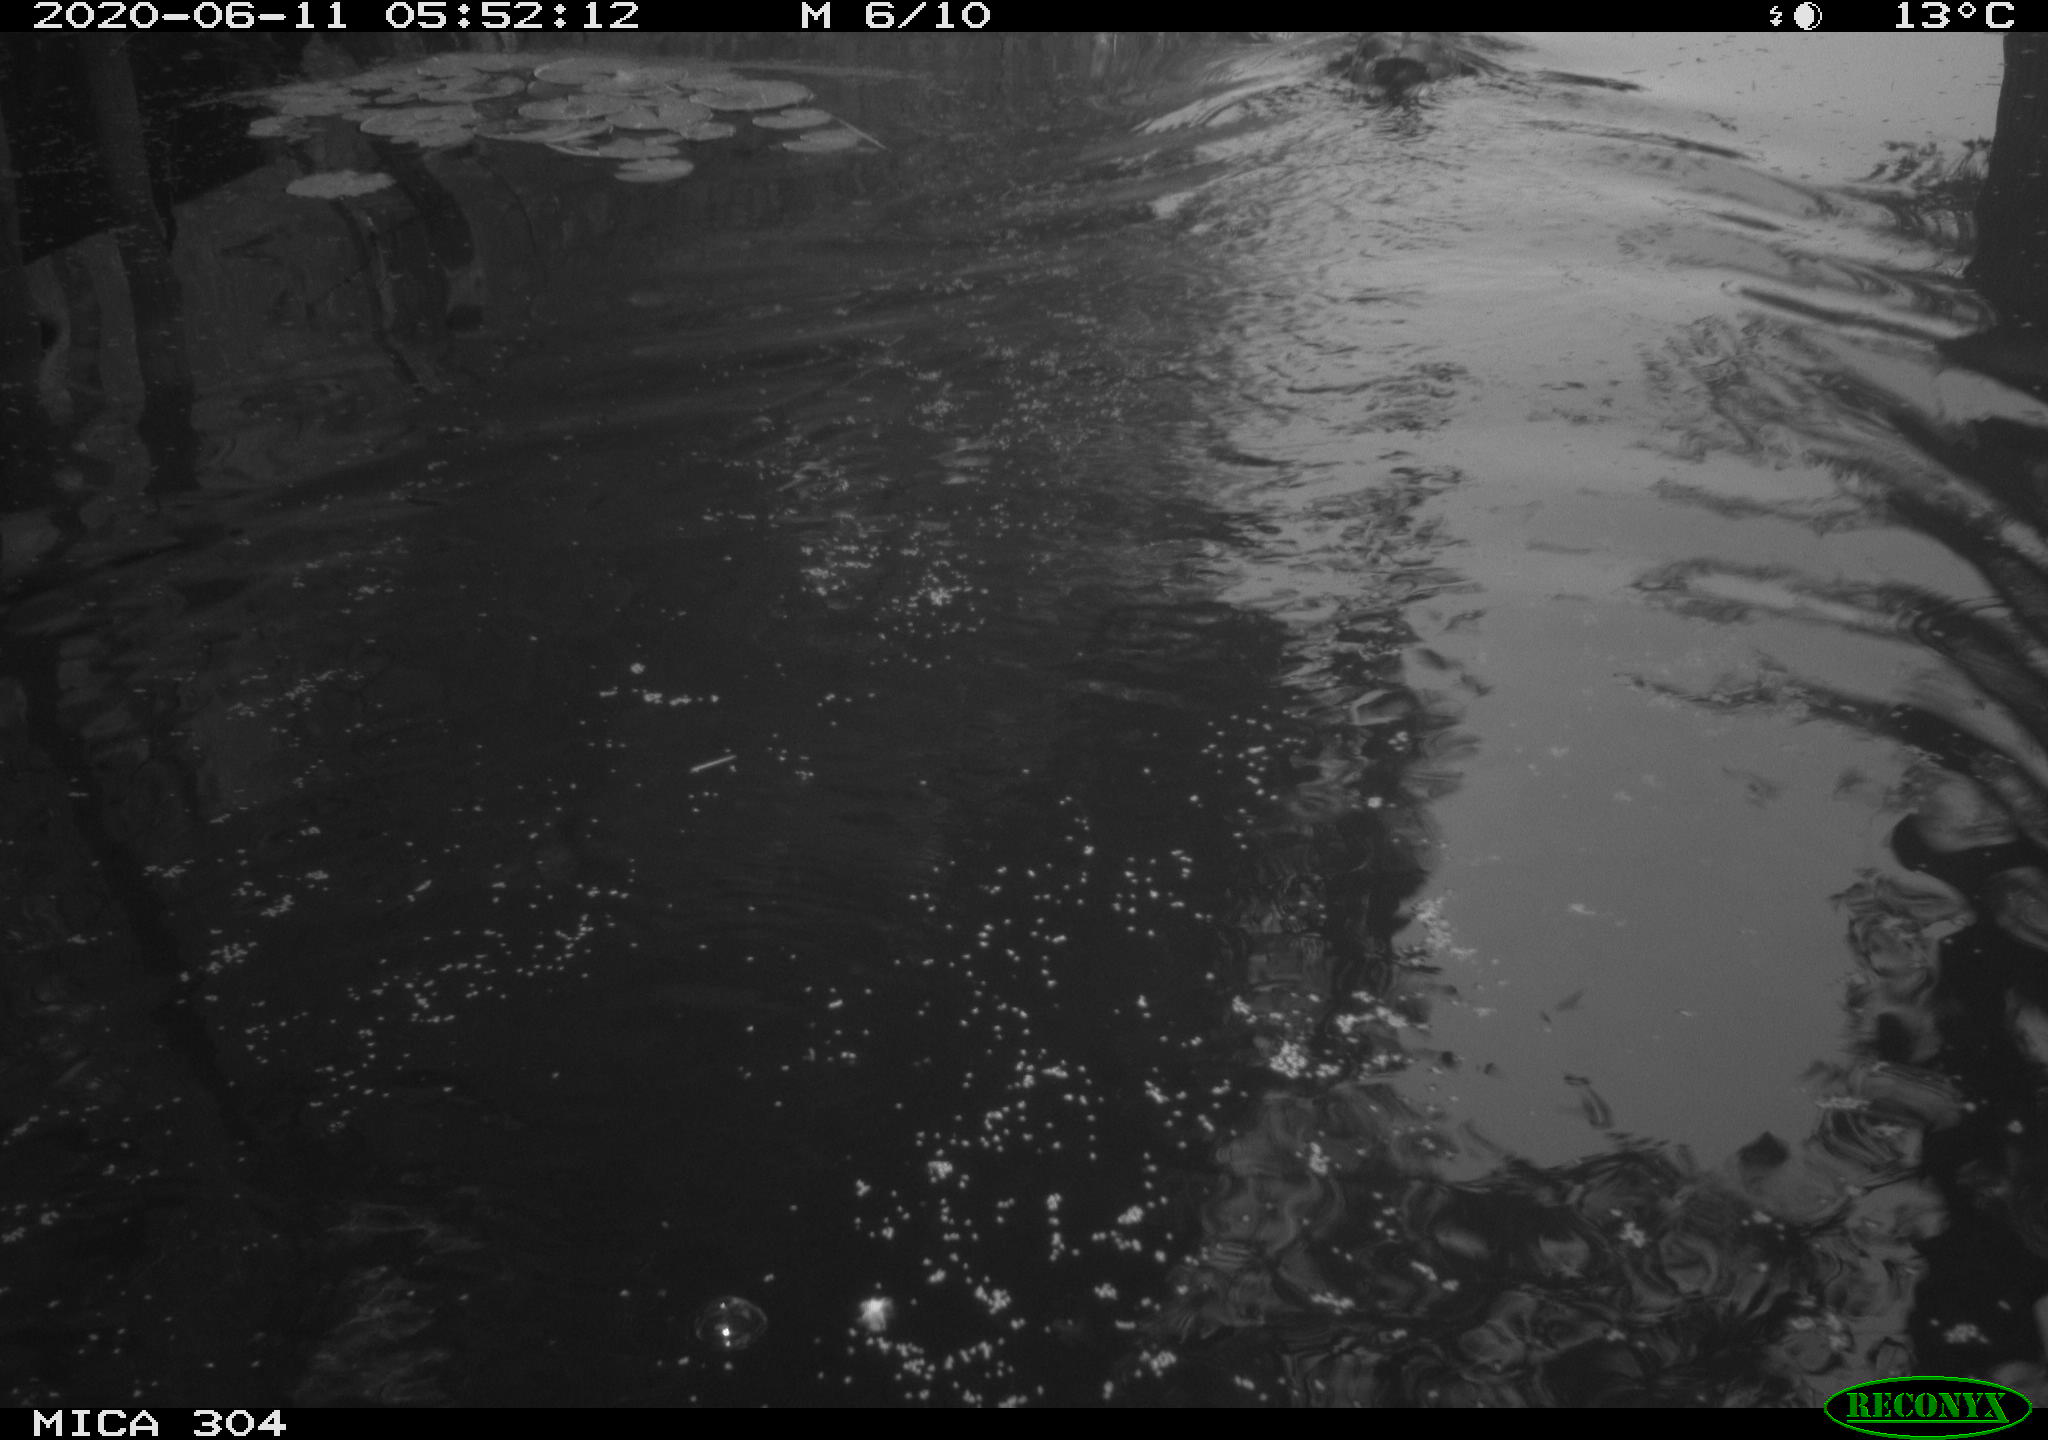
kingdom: Animalia
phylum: Chordata
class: Aves
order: Anseriformes
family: Anatidae
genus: Anas
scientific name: Anas platyrhynchos
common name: Mallard
